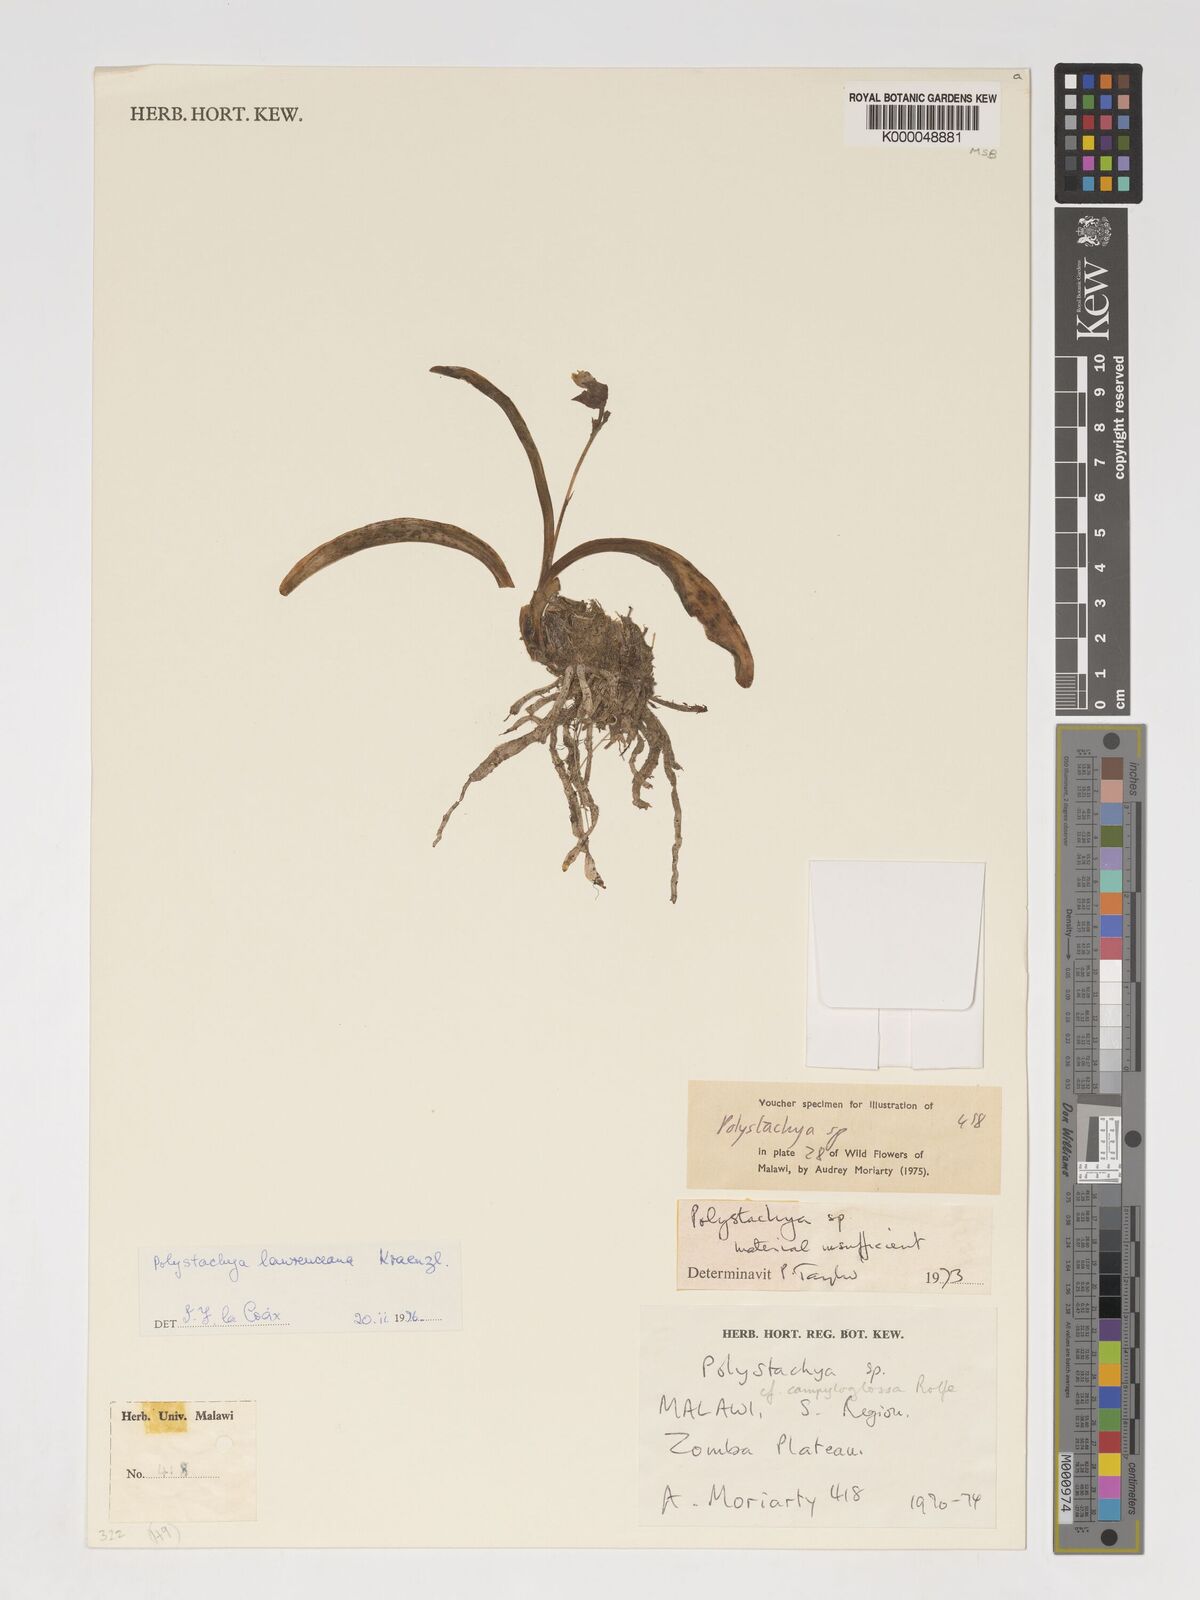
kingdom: Plantae
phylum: Tracheophyta
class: Liliopsida
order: Asparagales
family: Orchidaceae
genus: Polystachya
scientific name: Polystachya lawrenceana
